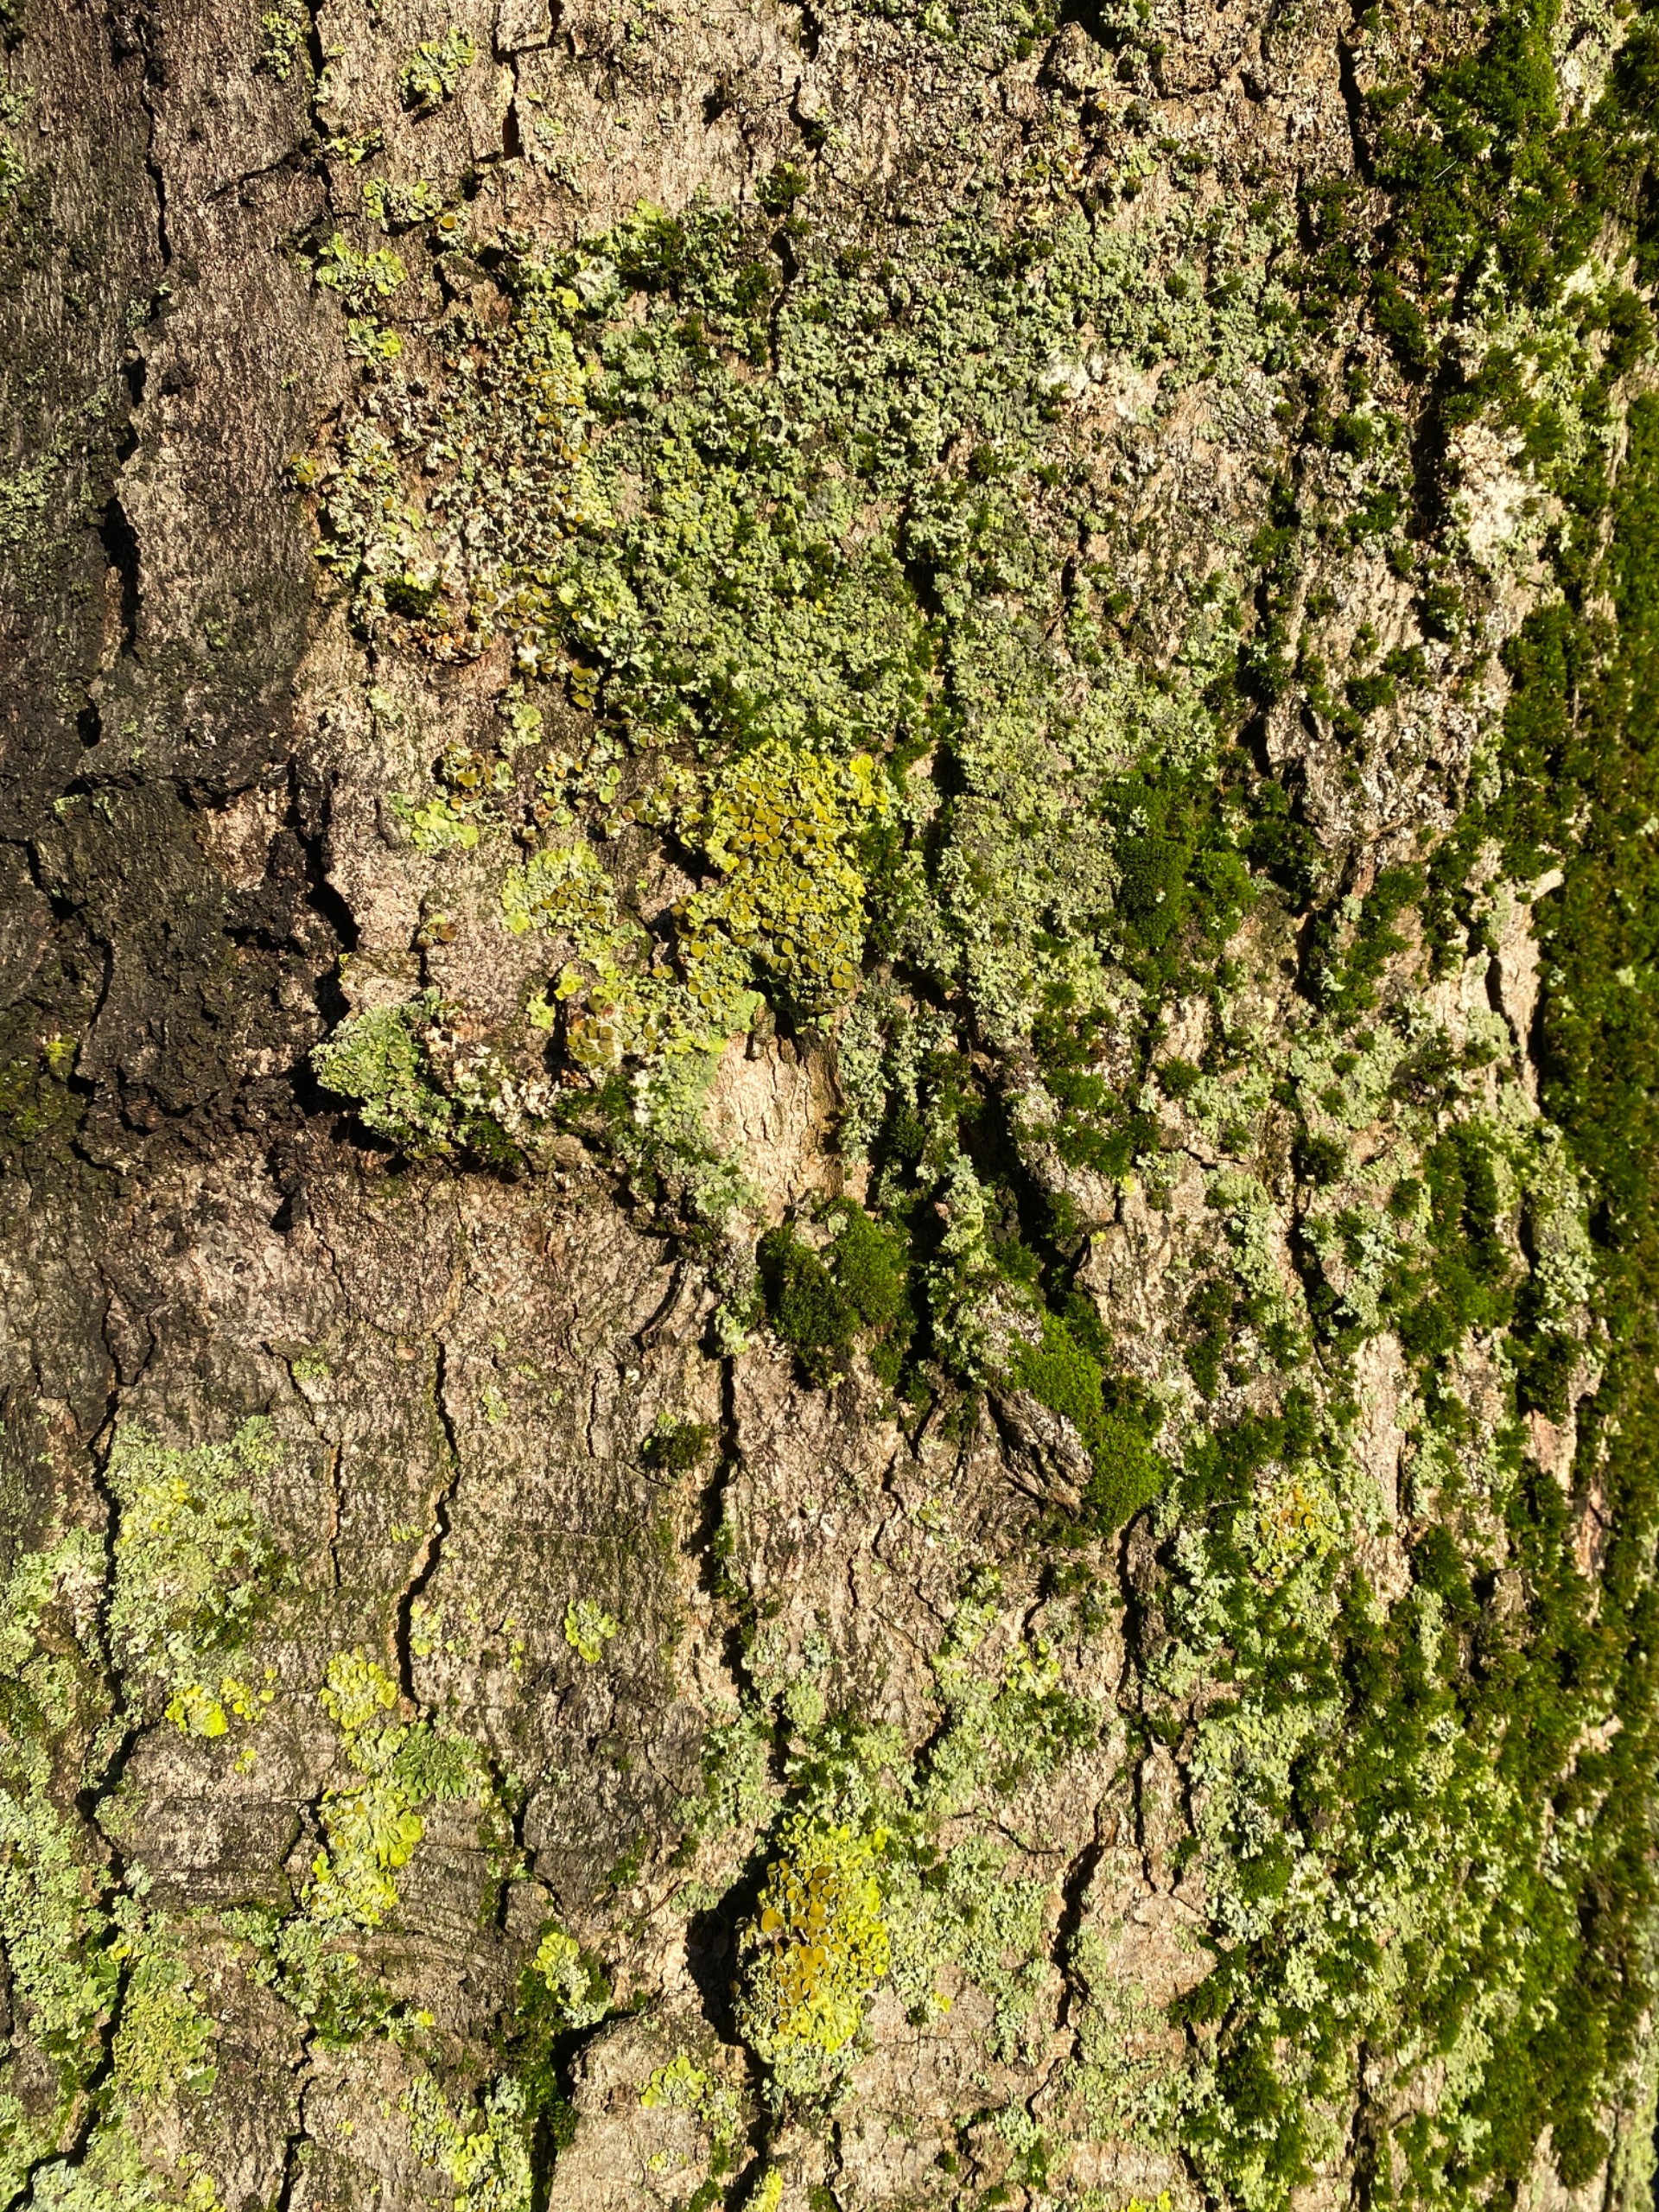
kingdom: Fungi
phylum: Ascomycota
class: Lecanoromycetes
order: Teloschistales
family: Teloschistaceae
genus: Xanthoria
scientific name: Xanthoria parietina
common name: Almindelig væggelav
